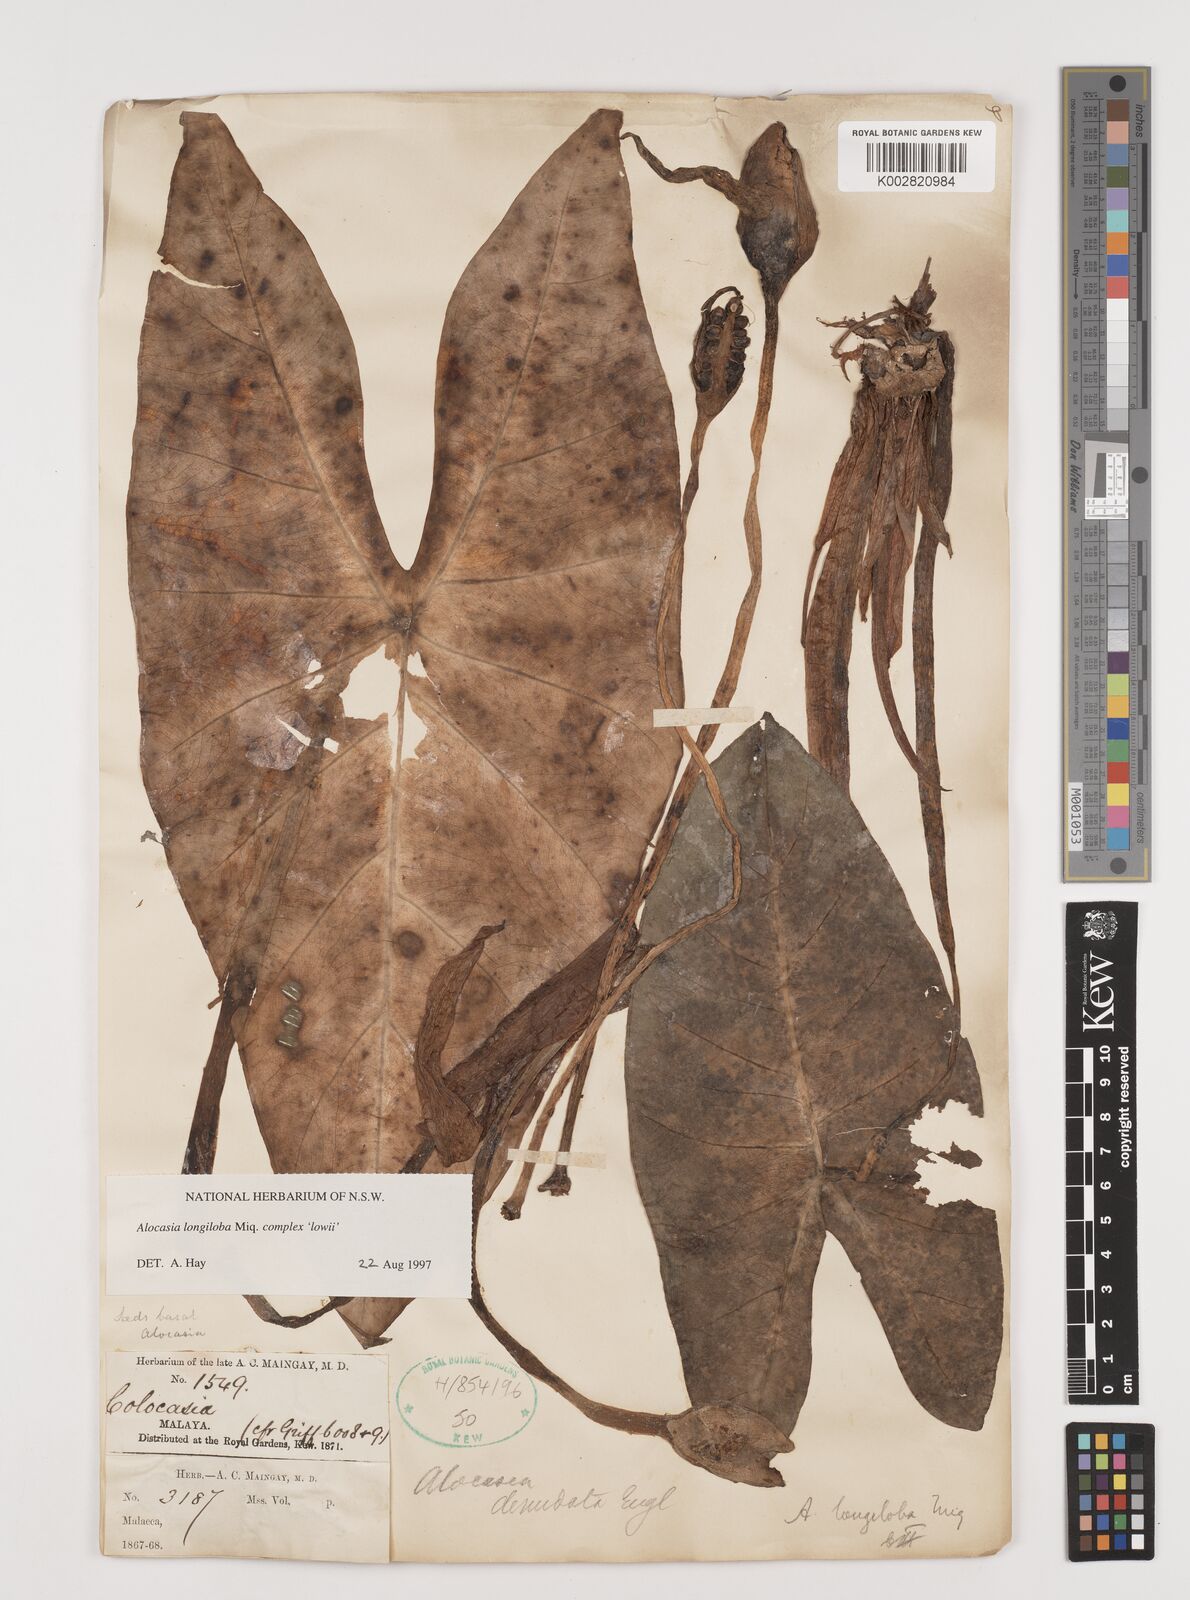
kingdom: Plantae
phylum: Tracheophyta
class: Liliopsida
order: Alismatales
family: Araceae
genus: Alocasia
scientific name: Alocasia longiloba
